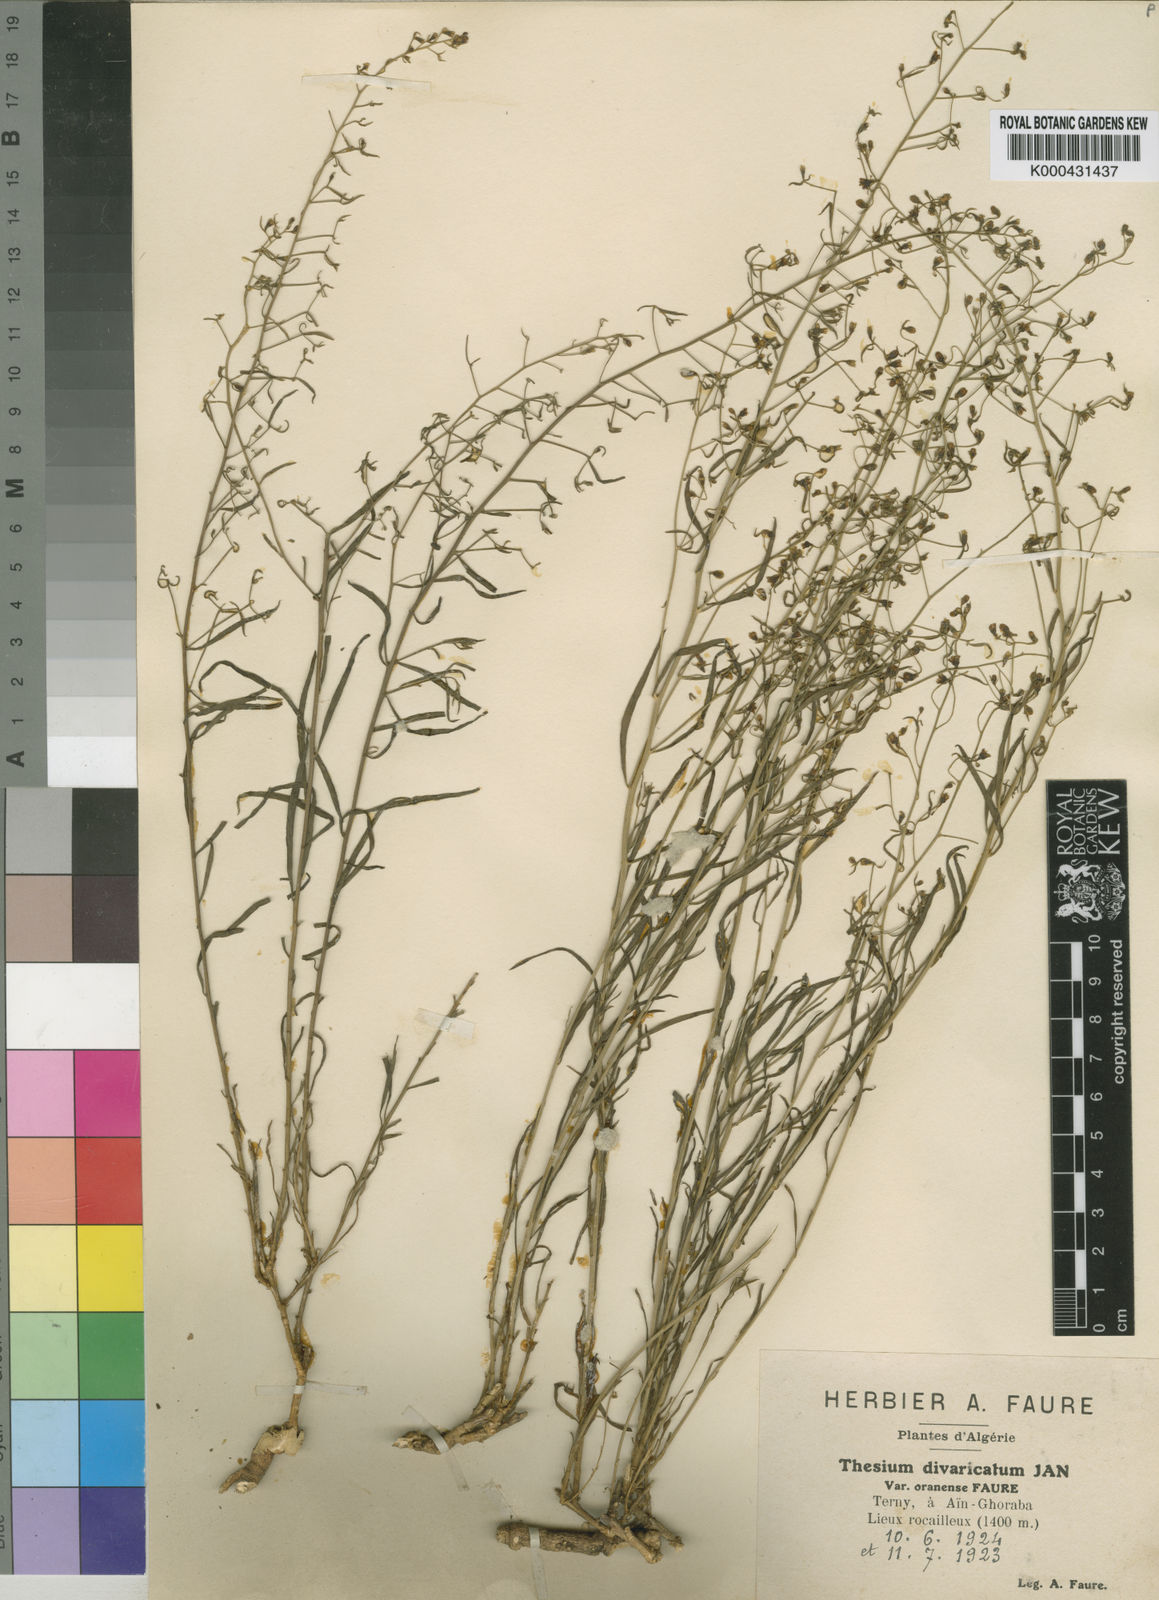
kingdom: Plantae
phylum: Tracheophyta
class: Magnoliopsida
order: Santalales
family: Thesiaceae
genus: Thesium
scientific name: Thesium
